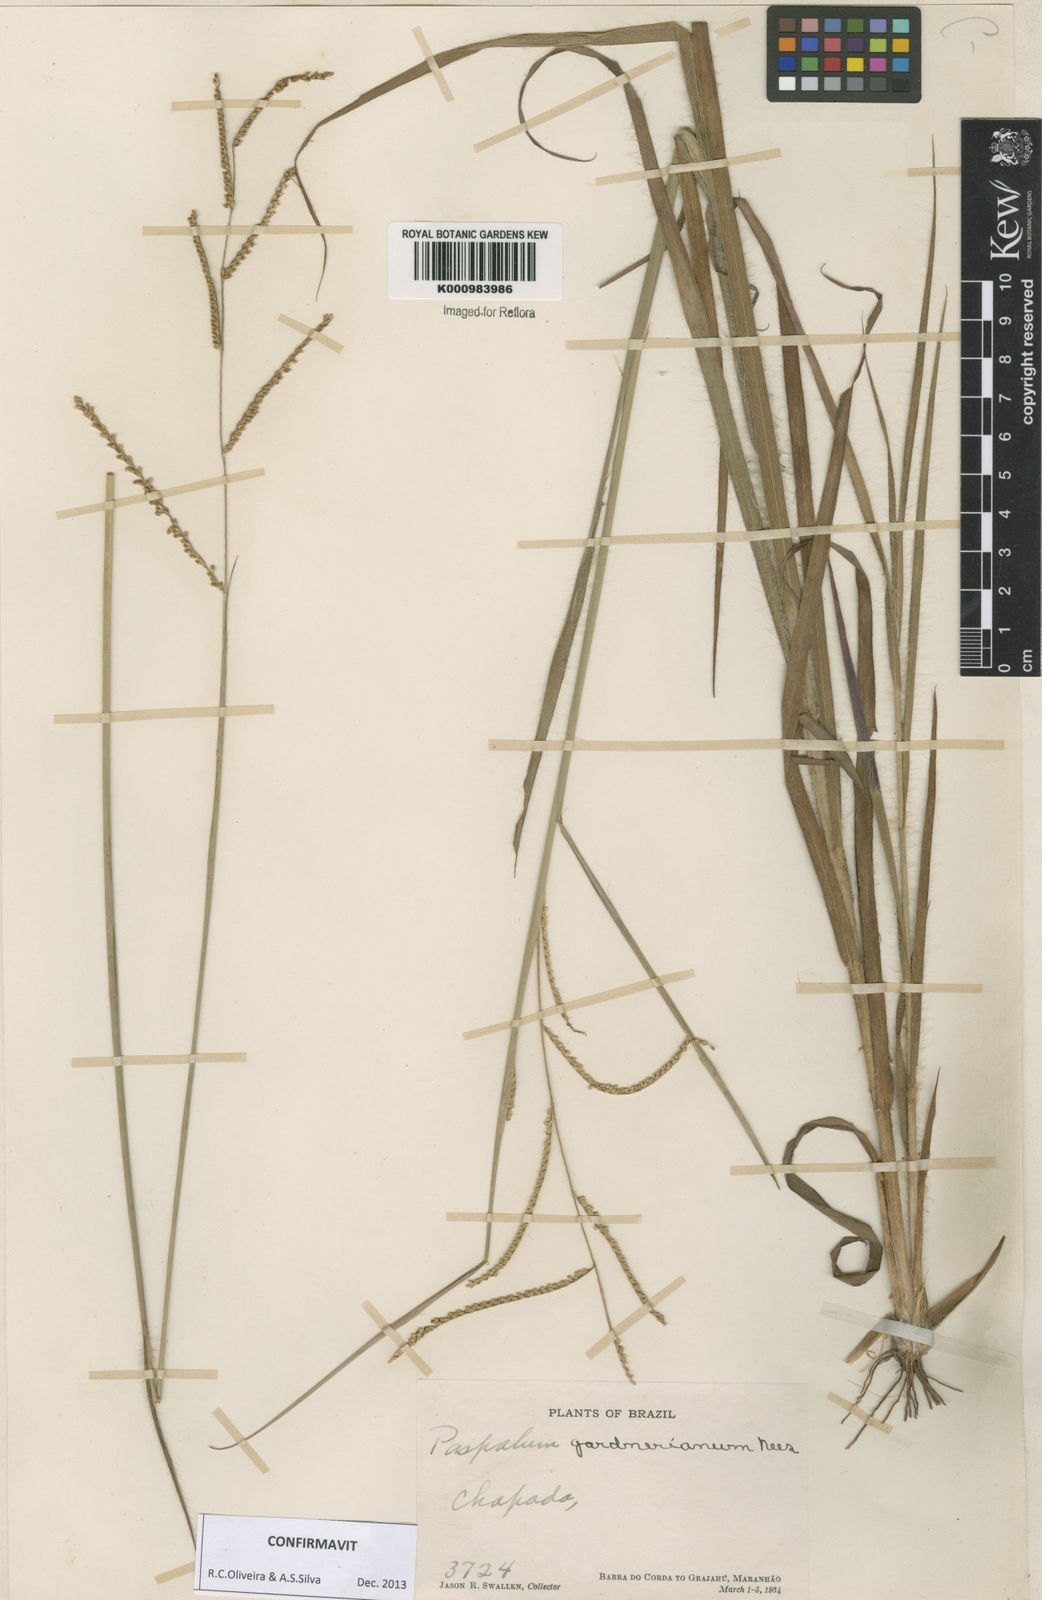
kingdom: Plantae
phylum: Tracheophyta
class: Liliopsida
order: Poales
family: Poaceae
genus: Paspalum
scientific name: Paspalum gardnerianum
